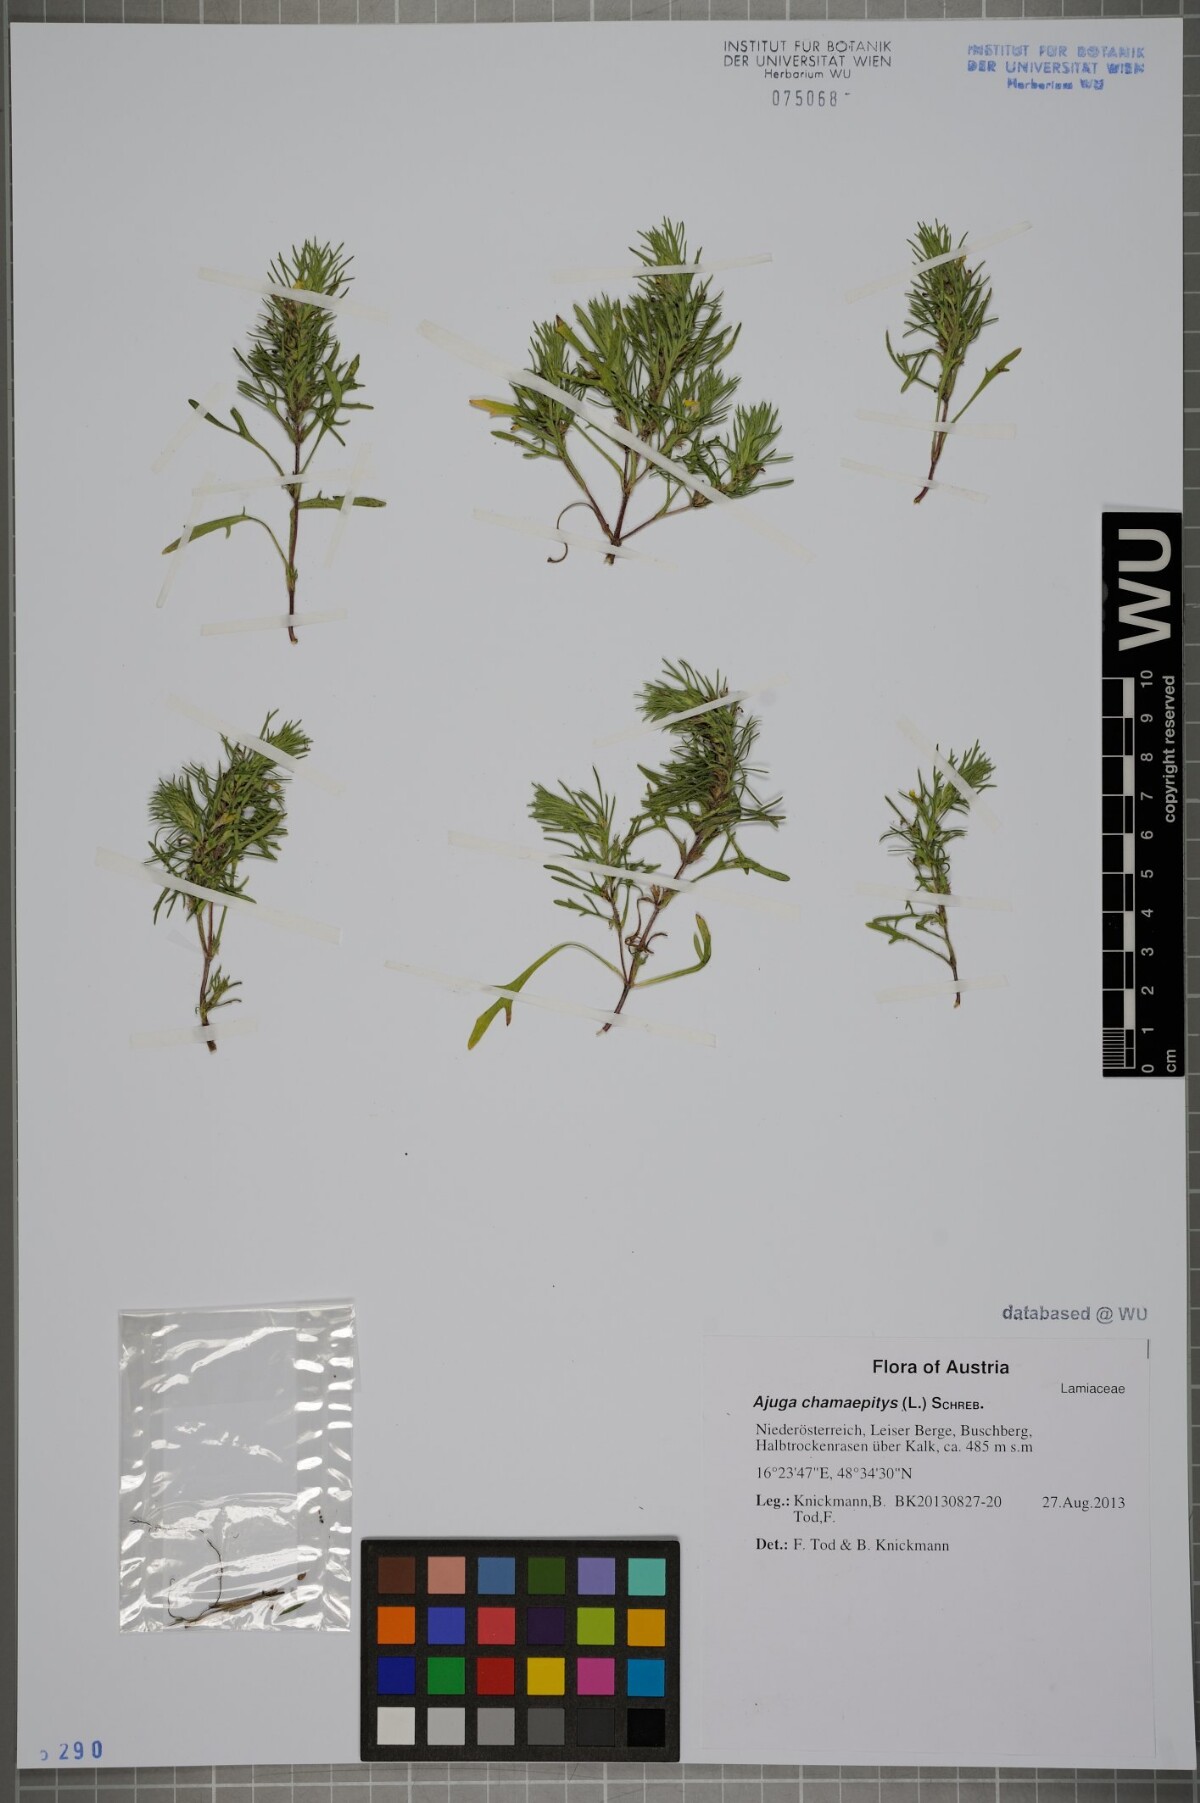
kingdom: Plantae
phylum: Tracheophyta
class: Magnoliopsida
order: Lamiales
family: Lamiaceae
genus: Ajuga
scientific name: Ajuga chamaepitys
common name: Ground-pine
